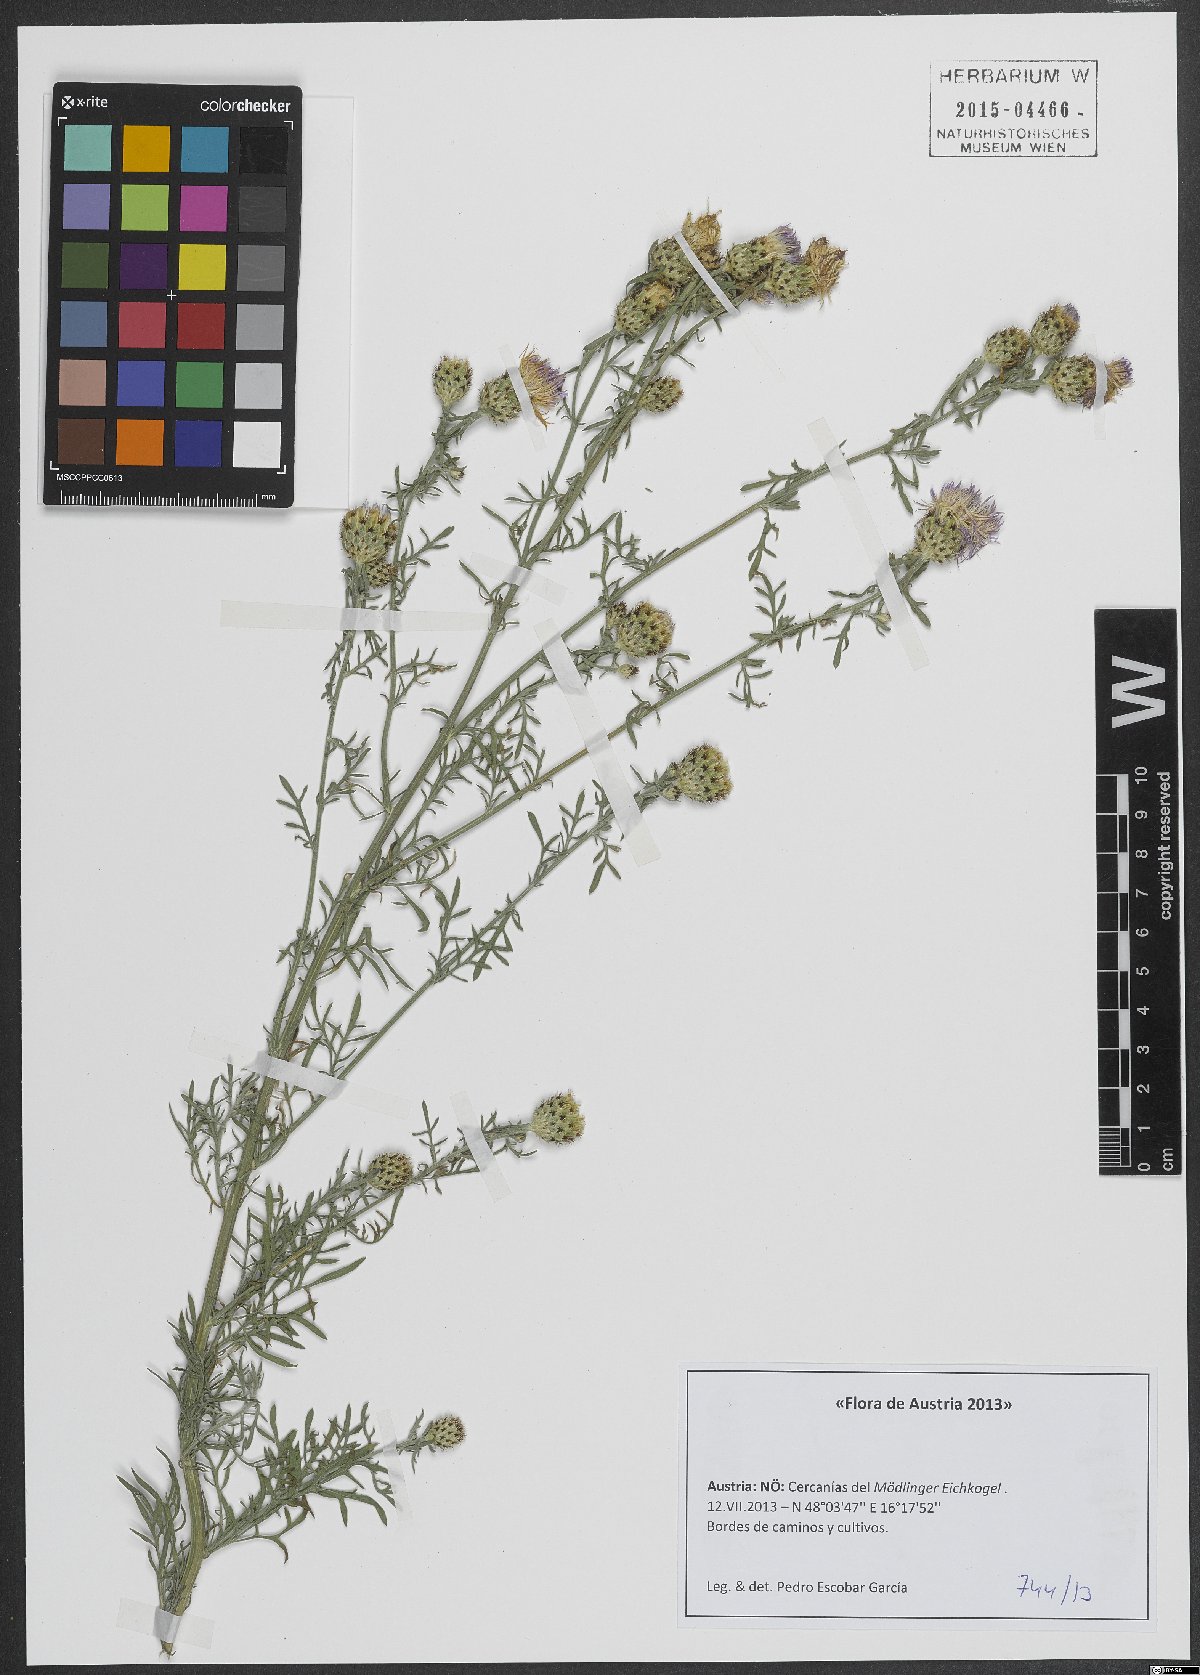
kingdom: Plantae
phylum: Tracheophyta
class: Magnoliopsida
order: Asterales
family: Asteraceae
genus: Centaurea
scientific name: Centaurea stoebe
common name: Spotted knapweed
